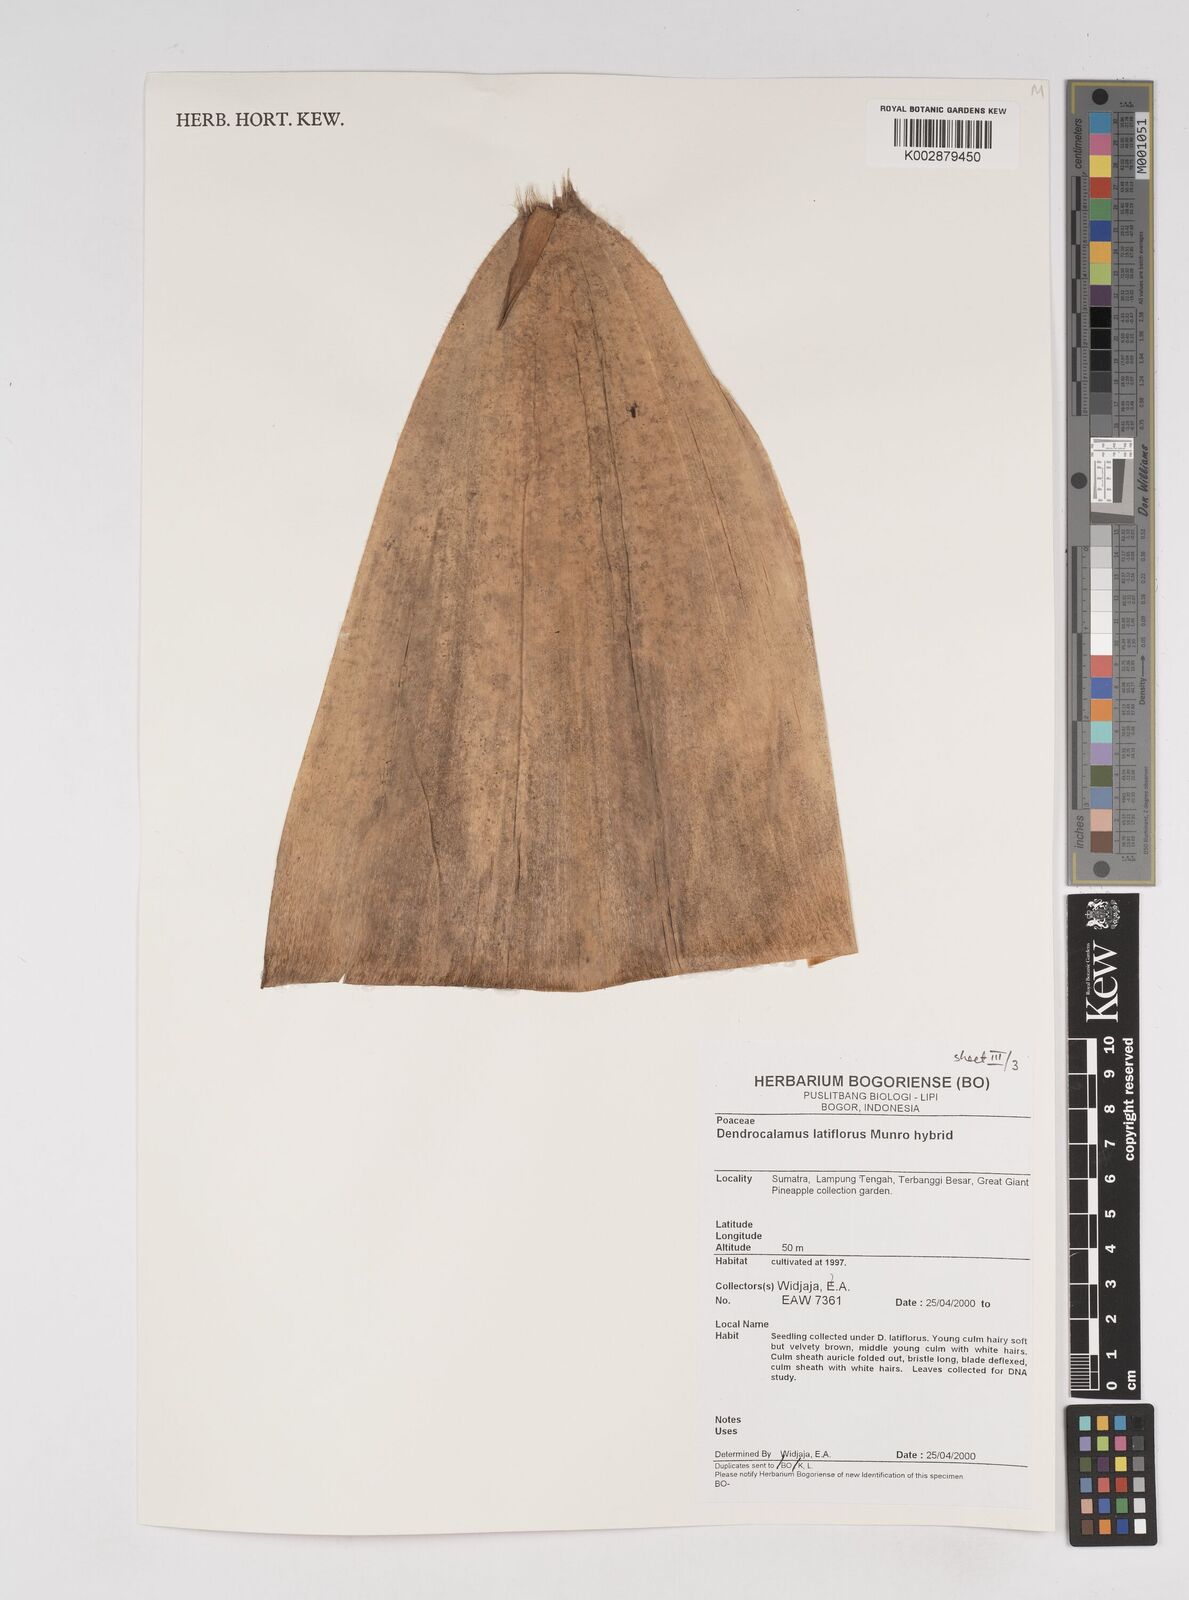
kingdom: Plantae
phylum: Tracheophyta
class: Liliopsida
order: Poales
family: Poaceae
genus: Dendrocalamus
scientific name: Dendrocalamus latiflorus
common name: Giant bamboo
